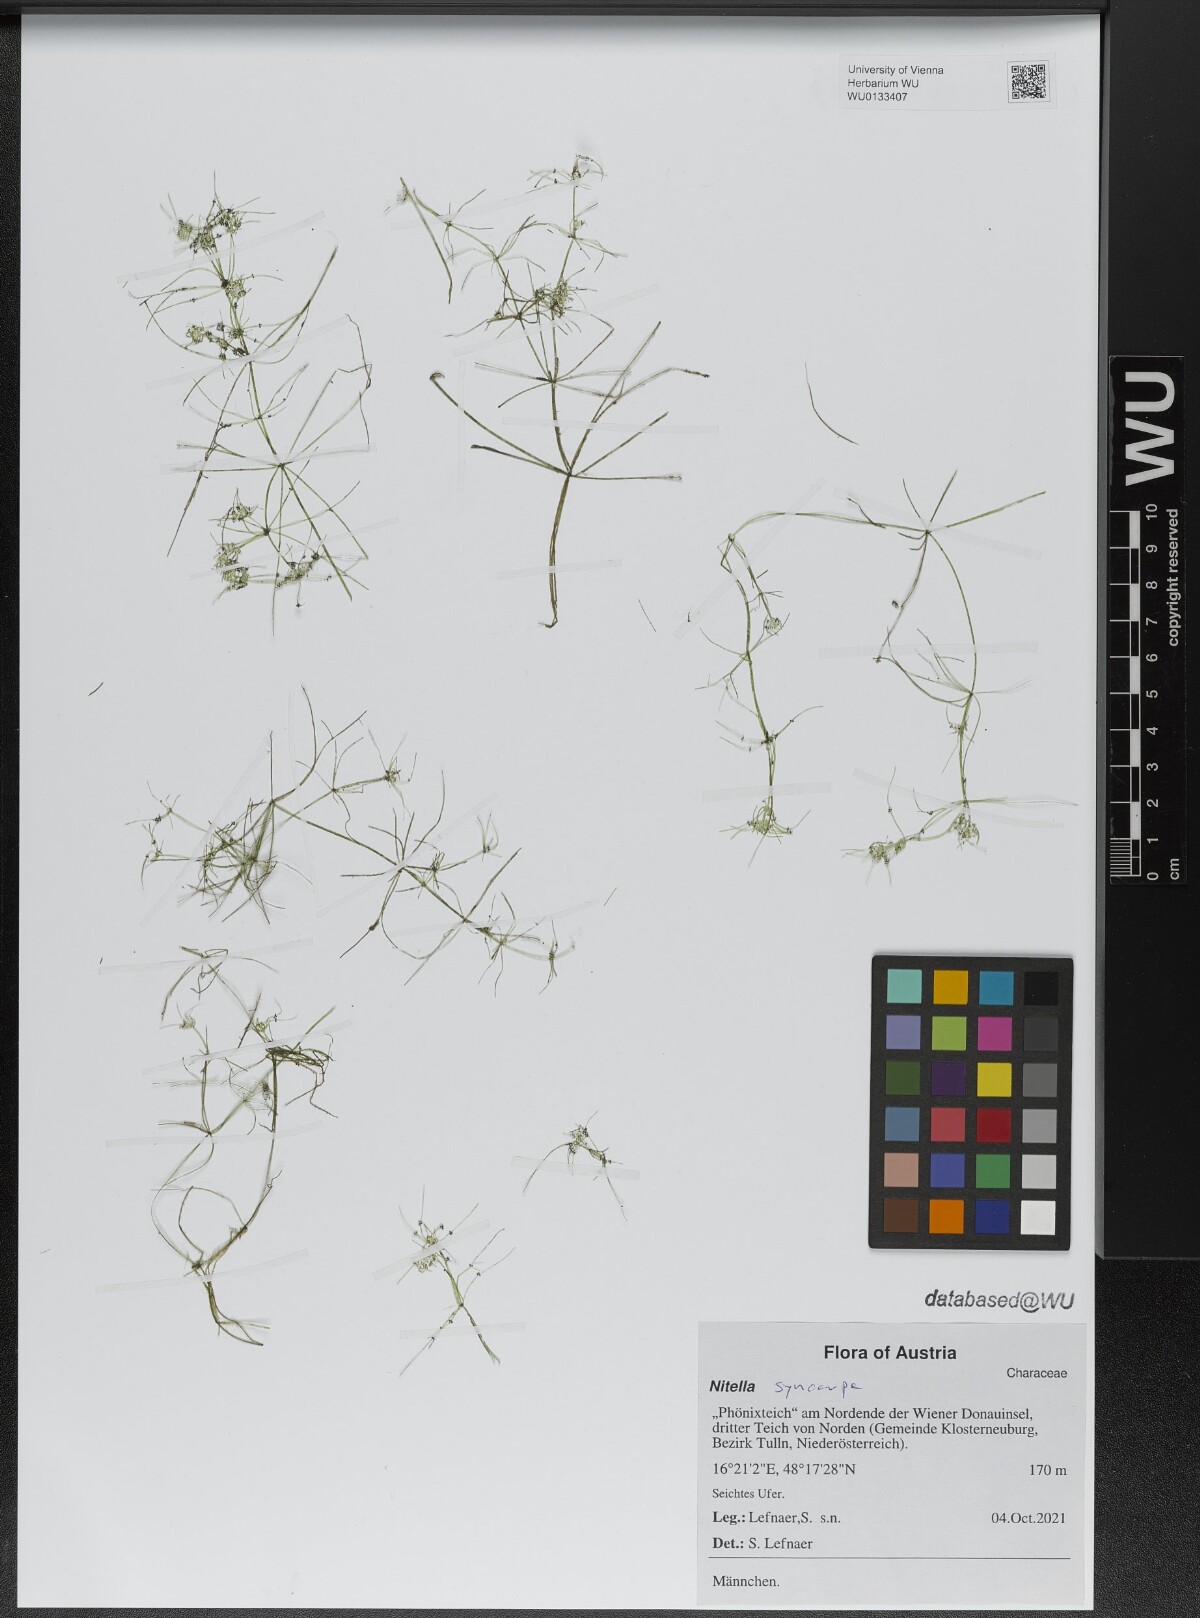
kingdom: Plantae
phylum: Charophyta
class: Charophyceae
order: Charales
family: Characeae
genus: Nitella
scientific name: Nitella syncarpa
